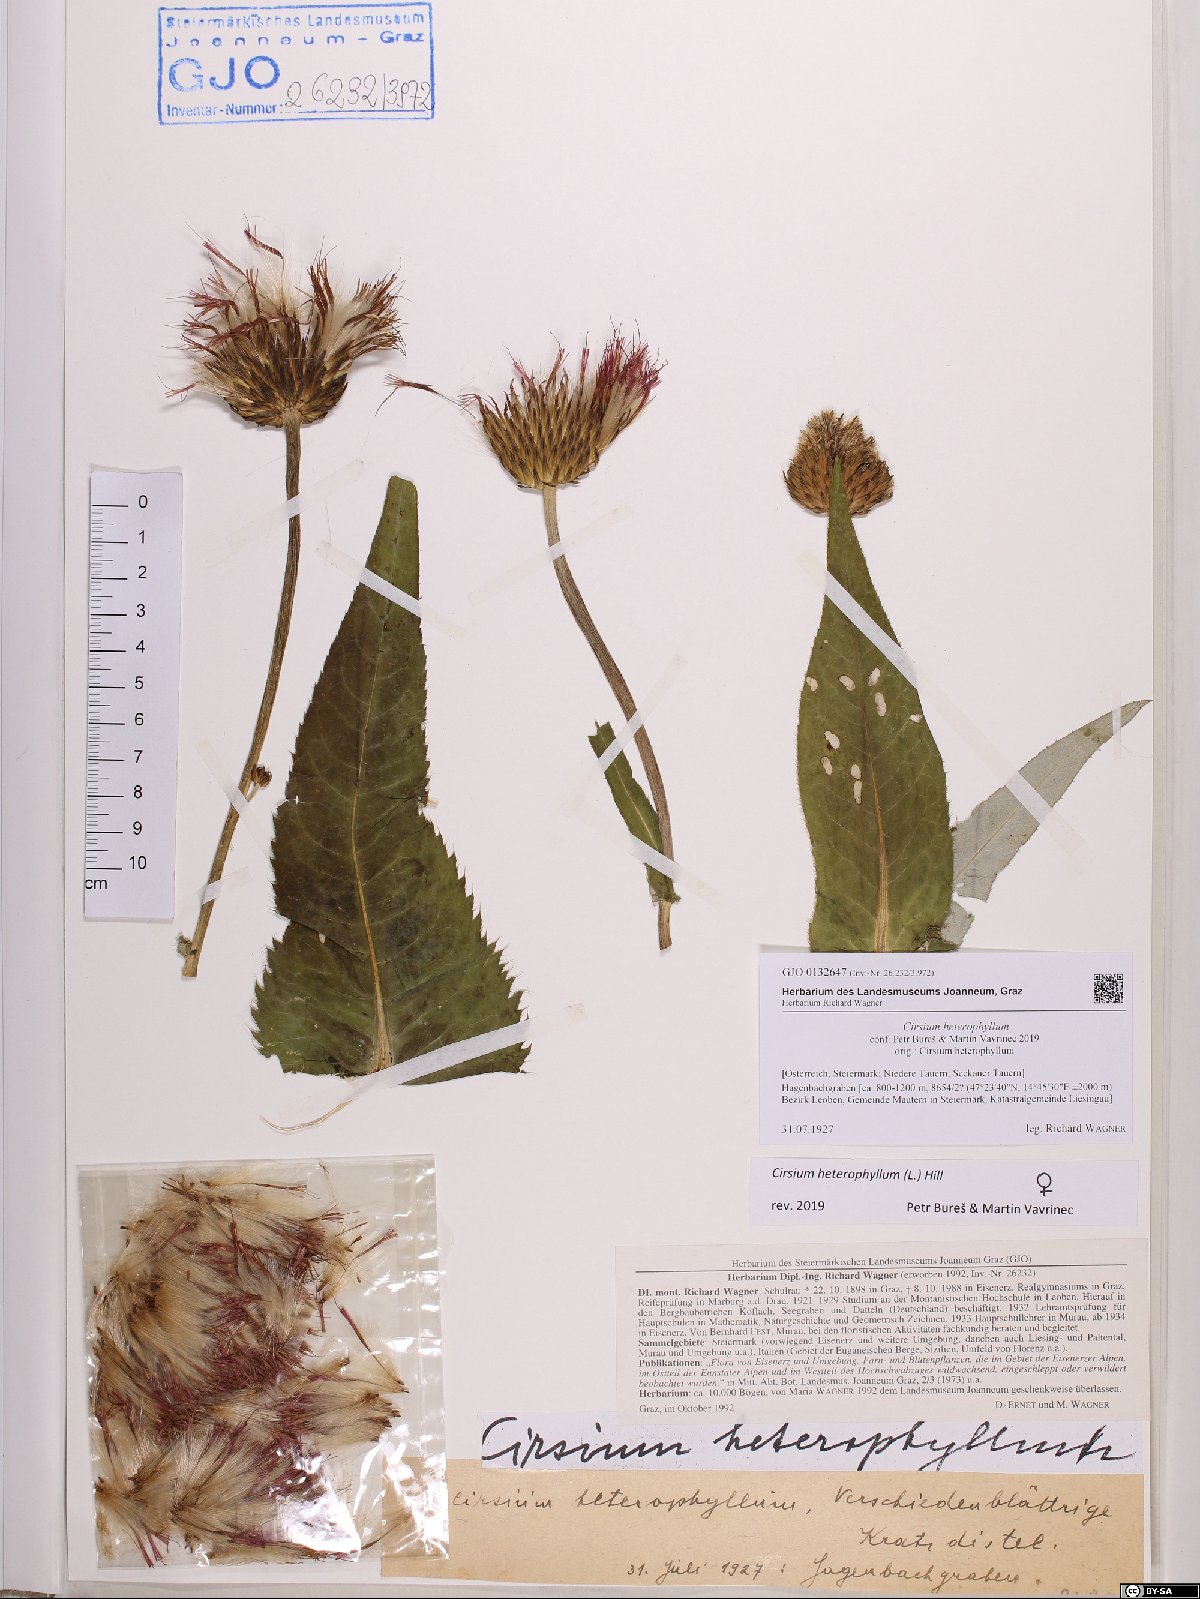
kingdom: Plantae
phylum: Tracheophyta
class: Magnoliopsida
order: Asterales
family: Asteraceae
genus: Cirsium
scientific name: Cirsium heterophyllum
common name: Melancholy thistle
